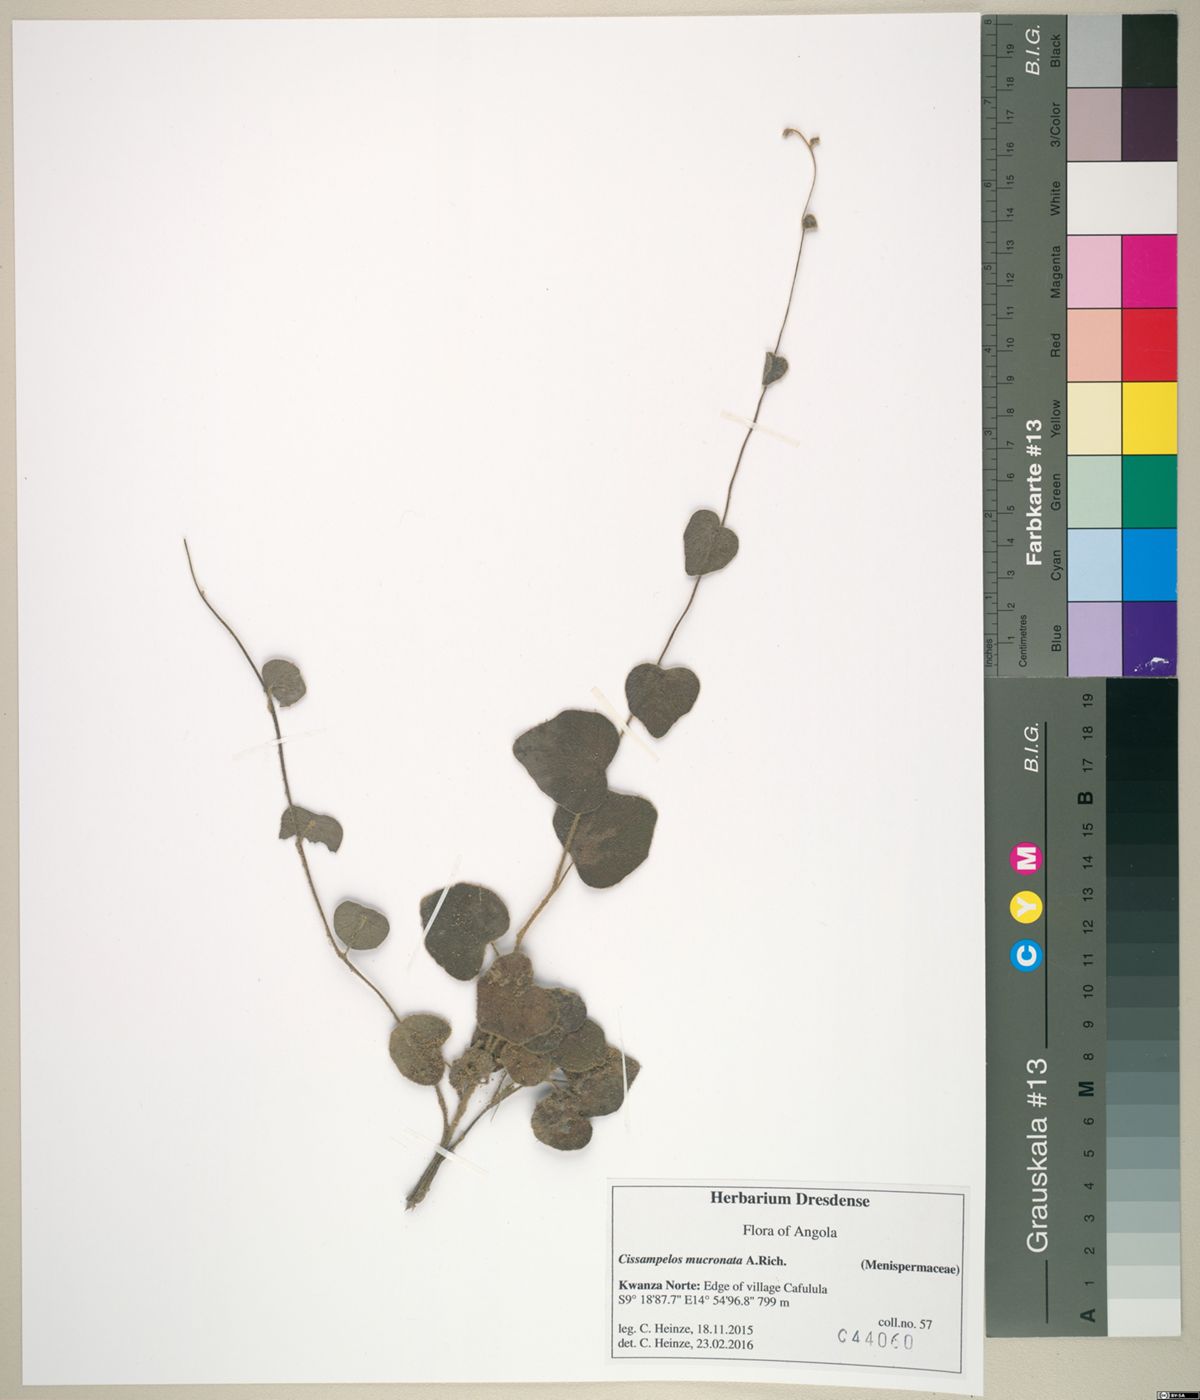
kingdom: Plantae
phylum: Tracheophyta
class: Magnoliopsida
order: Ranunculales
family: Menispermaceae
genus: Cissampelos
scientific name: Cissampelos mucronata
